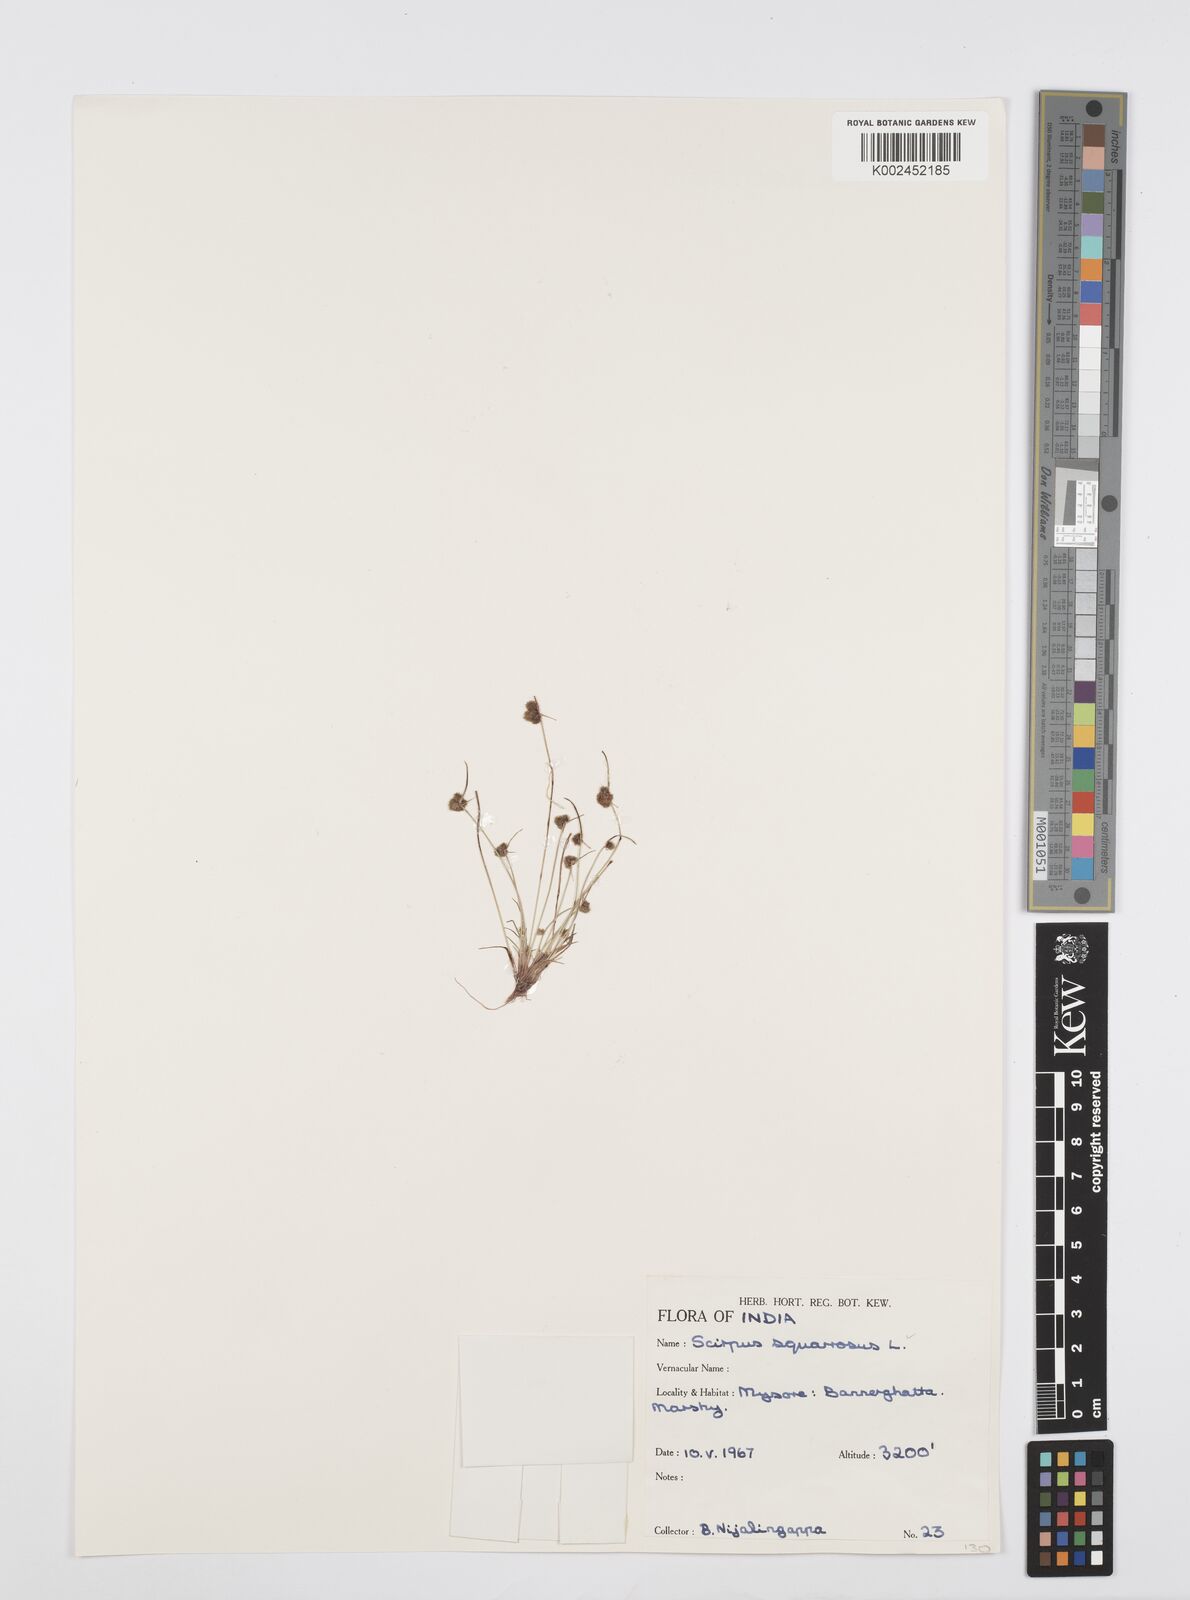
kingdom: Plantae
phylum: Tracheophyta
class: Liliopsida
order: Poales
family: Cyperaceae
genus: Cyperus
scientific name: Cyperus squarrosus
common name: Awned cyperus
